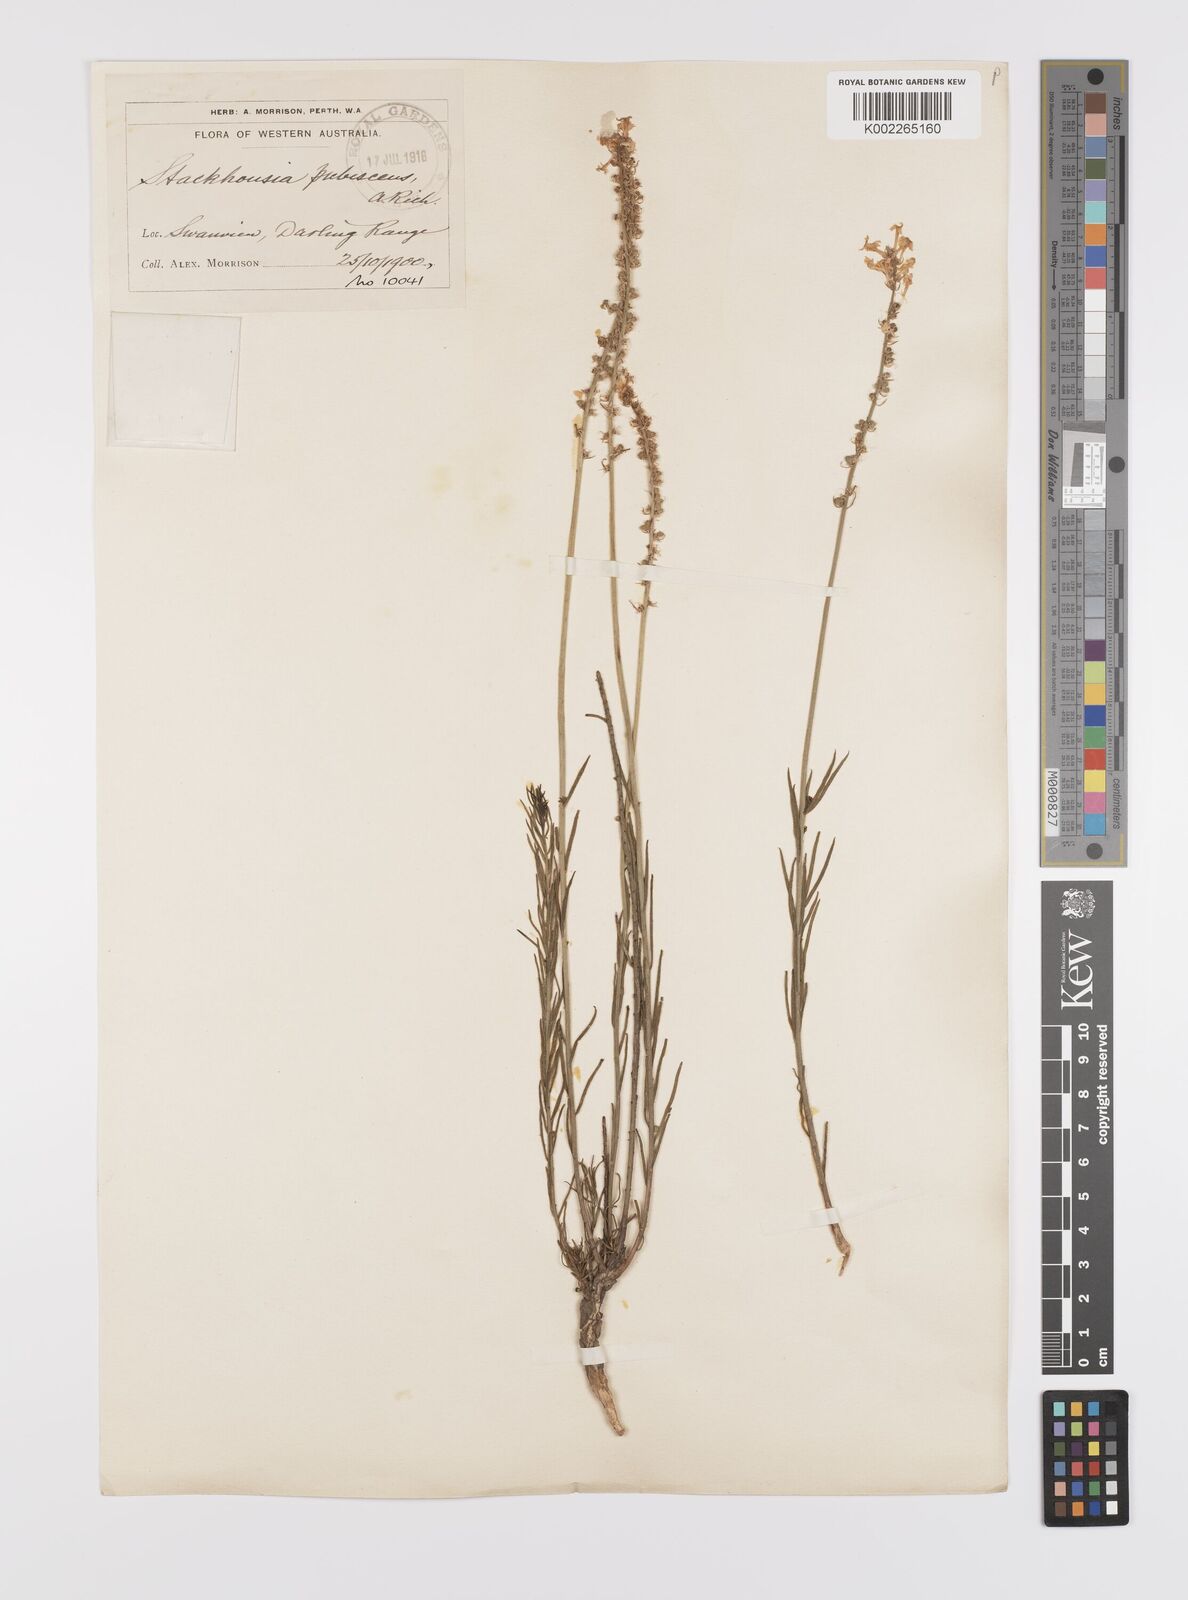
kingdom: Plantae
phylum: Tracheophyta
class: Magnoliopsida
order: Celastrales
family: Celastraceae
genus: Stackhousia
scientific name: Stackhousia monogyna
